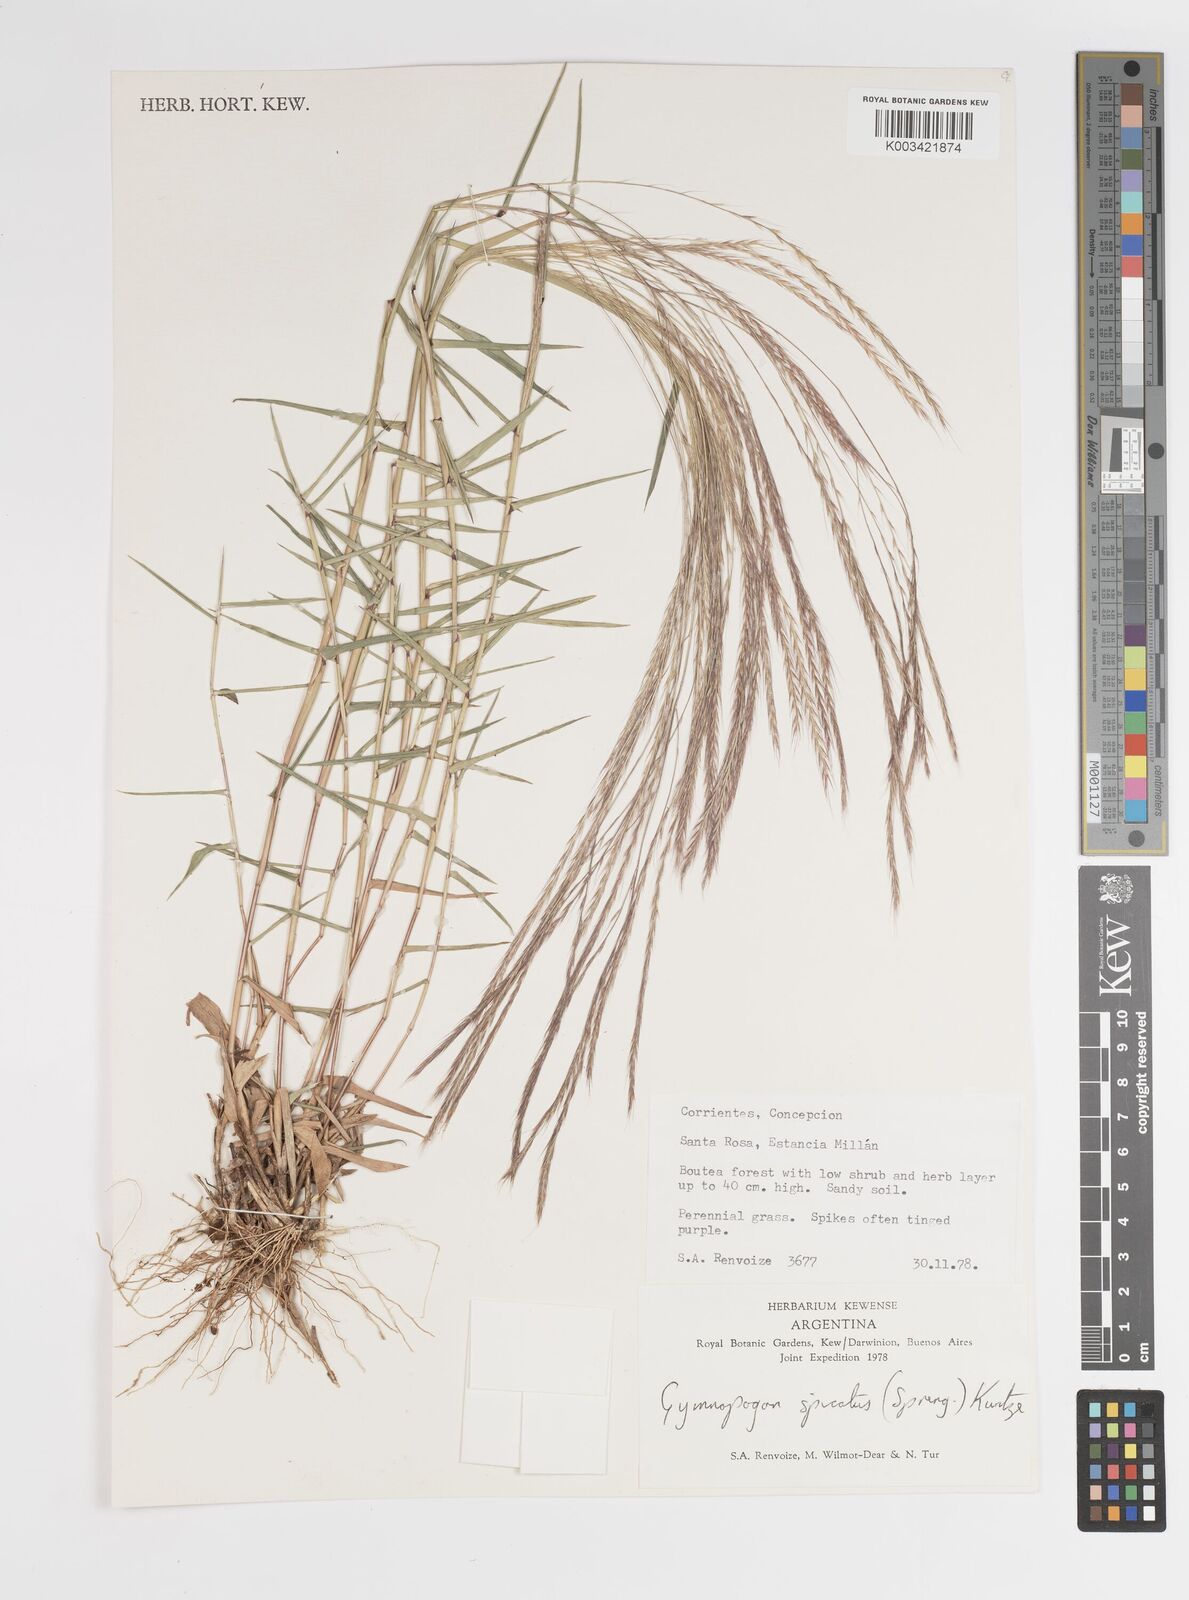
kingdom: Plantae
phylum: Tracheophyta
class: Liliopsida
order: Poales
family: Poaceae
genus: Gymnopogon
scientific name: Gymnopogon spicatus
